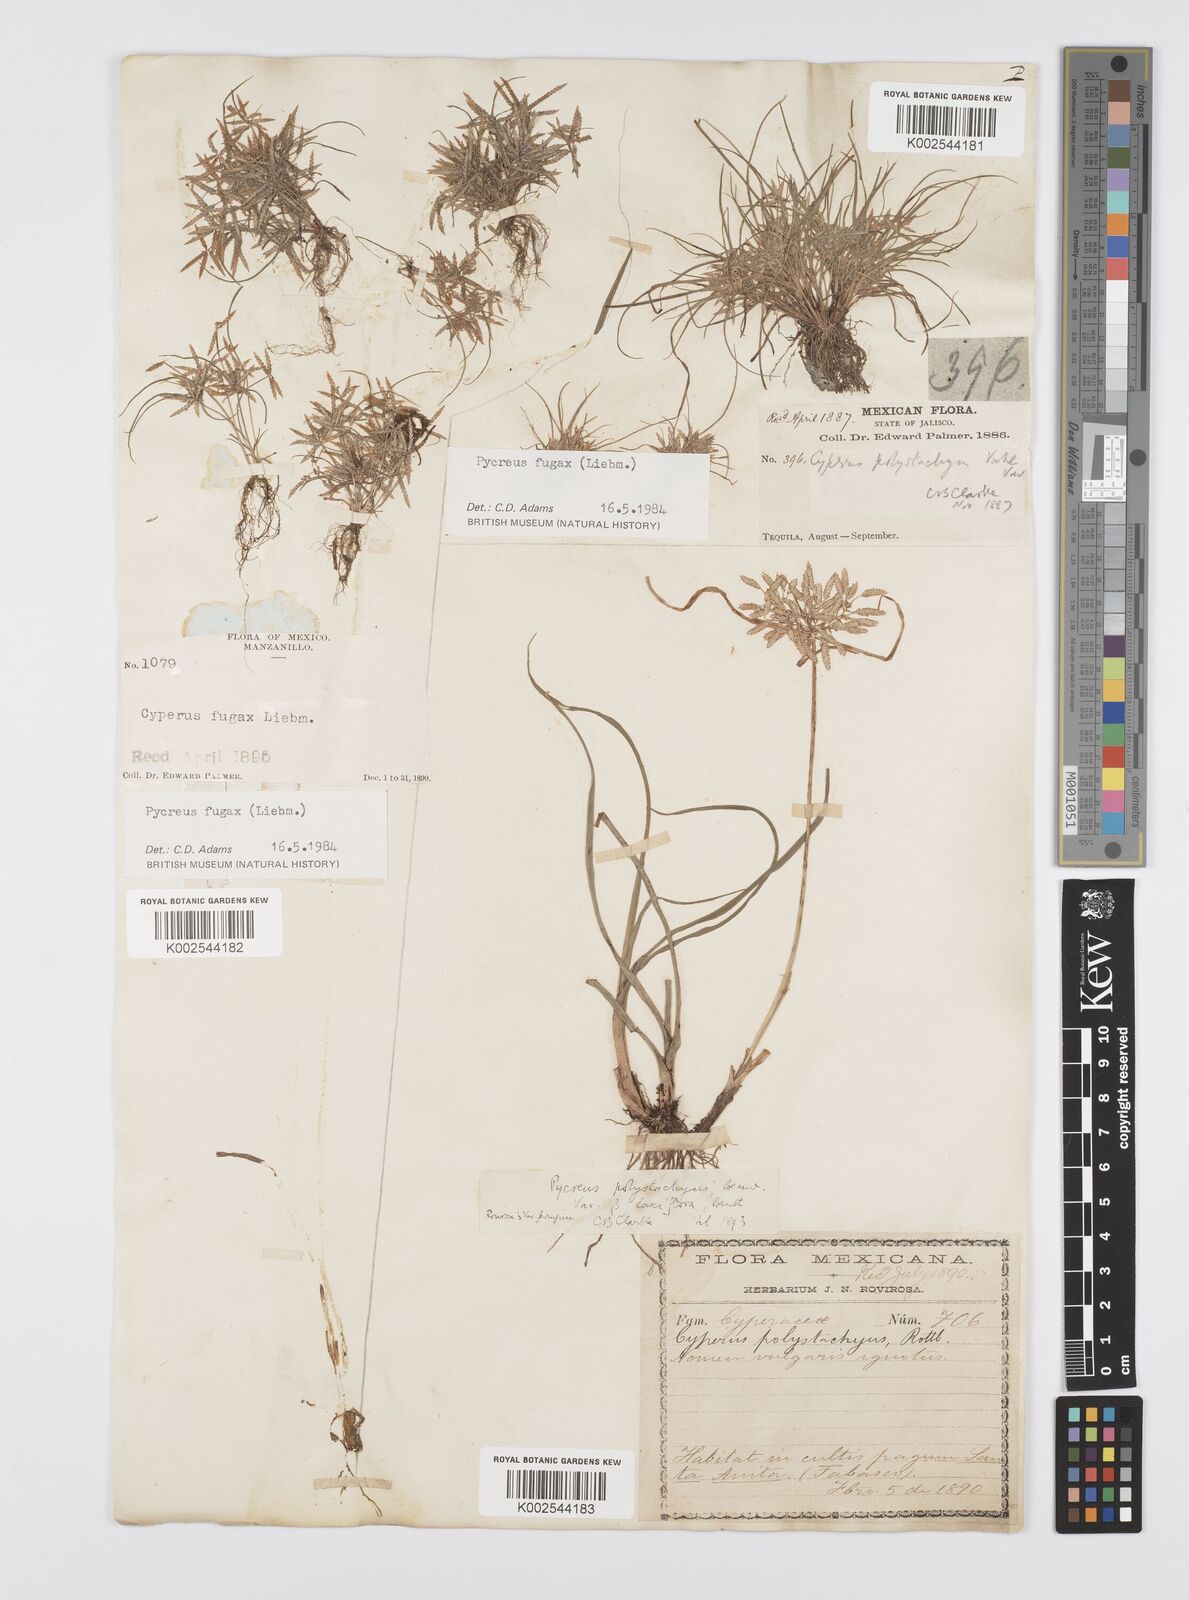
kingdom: Plantae
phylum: Tracheophyta
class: Liliopsida
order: Poales
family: Cyperaceae
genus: Cyperus
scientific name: Cyperus polystachyos
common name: Bunchy flat sedge
